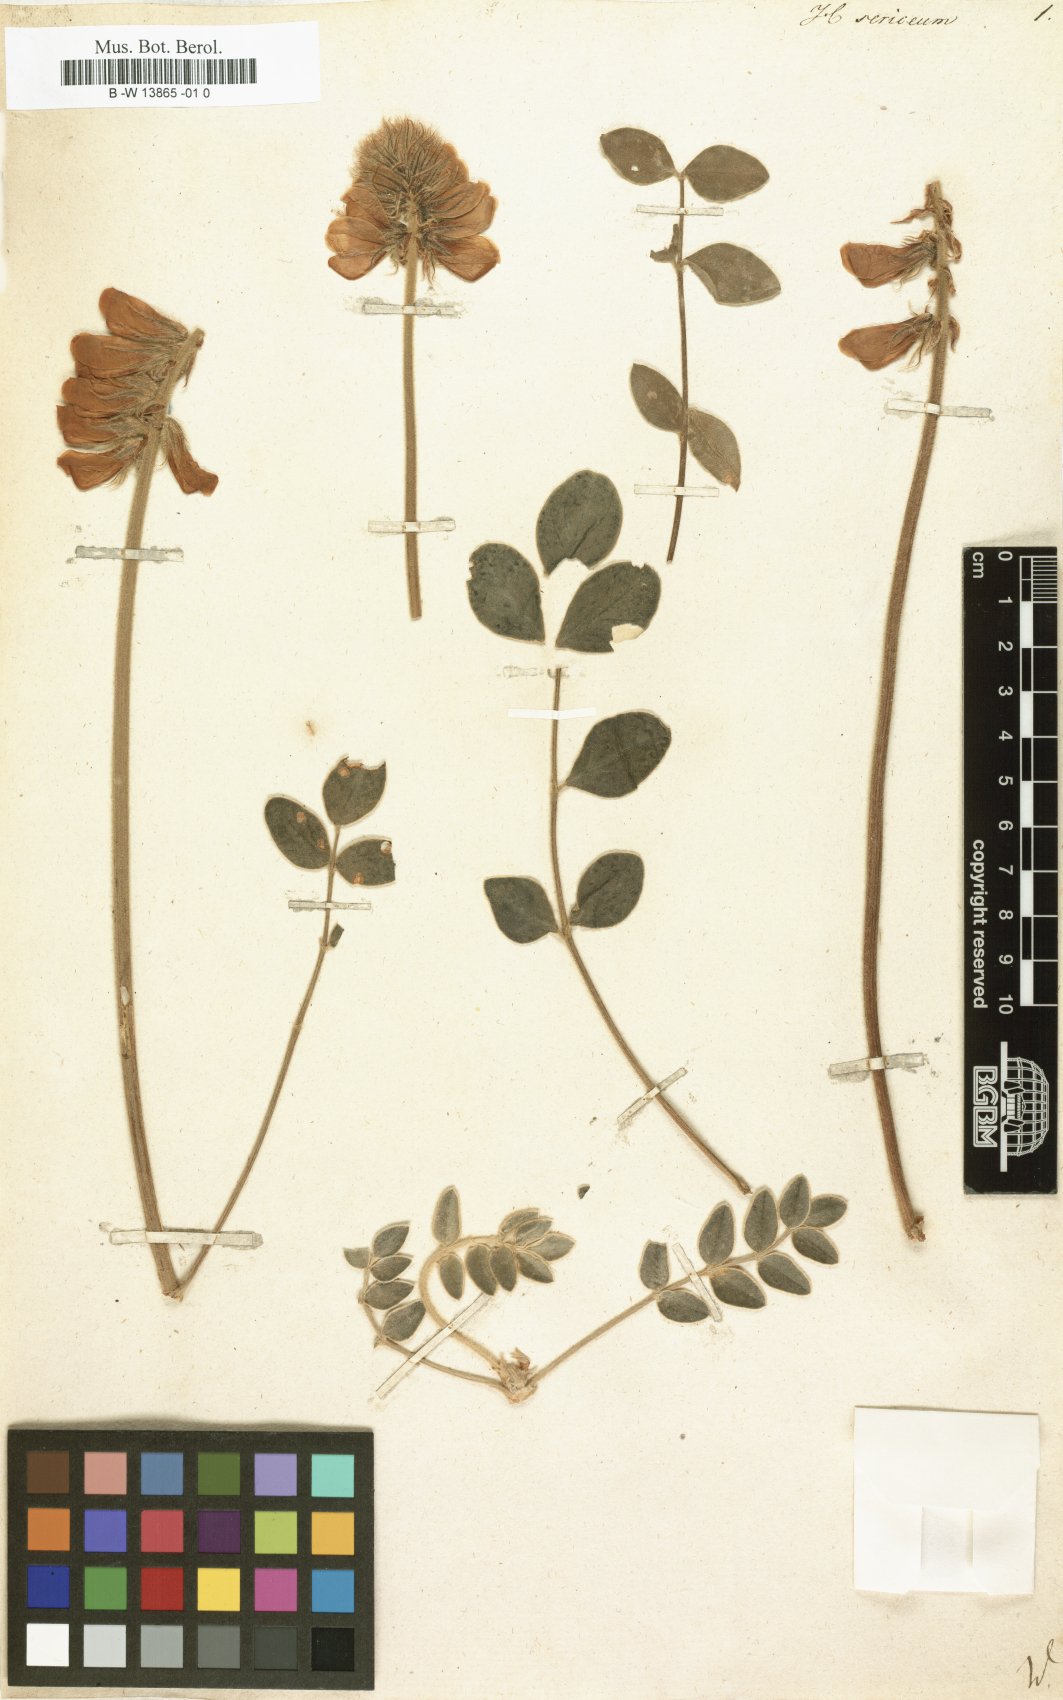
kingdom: Plantae
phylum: Tracheophyta
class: Magnoliopsida
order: Fabales
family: Fabaceae
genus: Desmodium
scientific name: Desmodium cinereum
